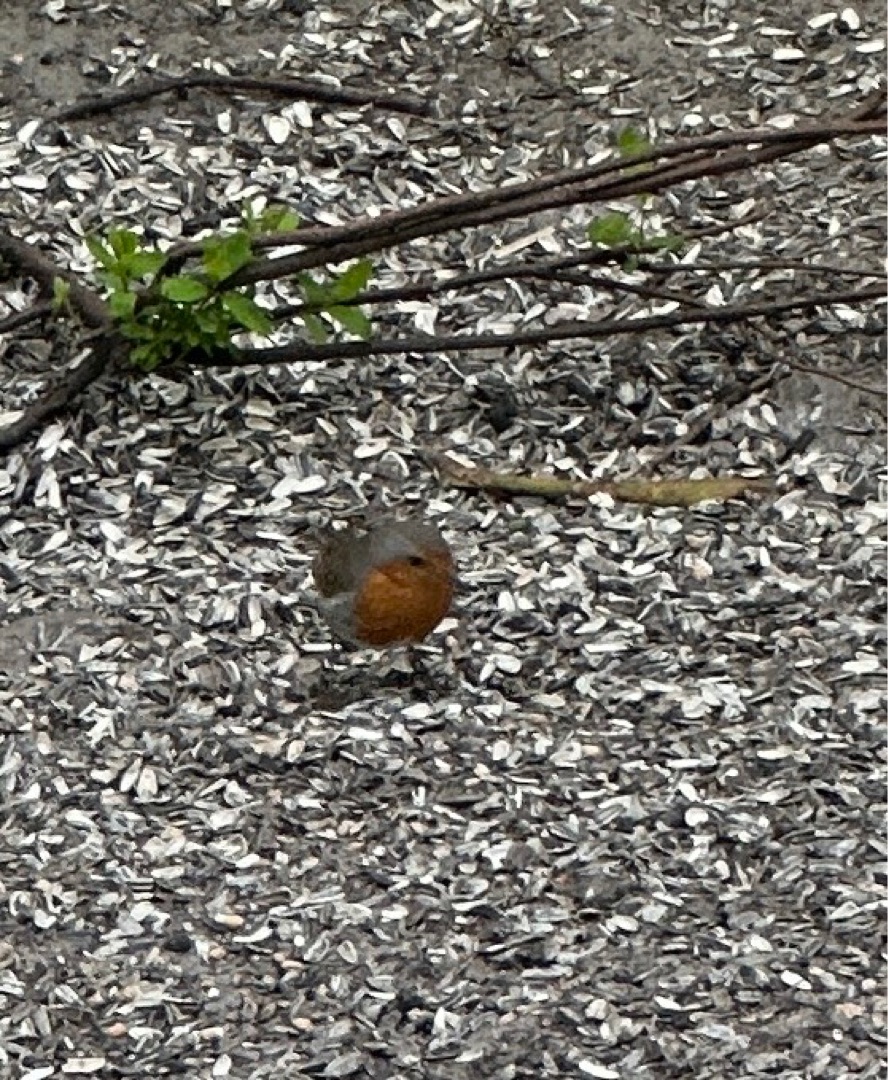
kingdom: Animalia
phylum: Chordata
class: Aves
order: Passeriformes
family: Muscicapidae
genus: Erithacus
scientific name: Erithacus rubecula
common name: Rødhals/rødkælk
